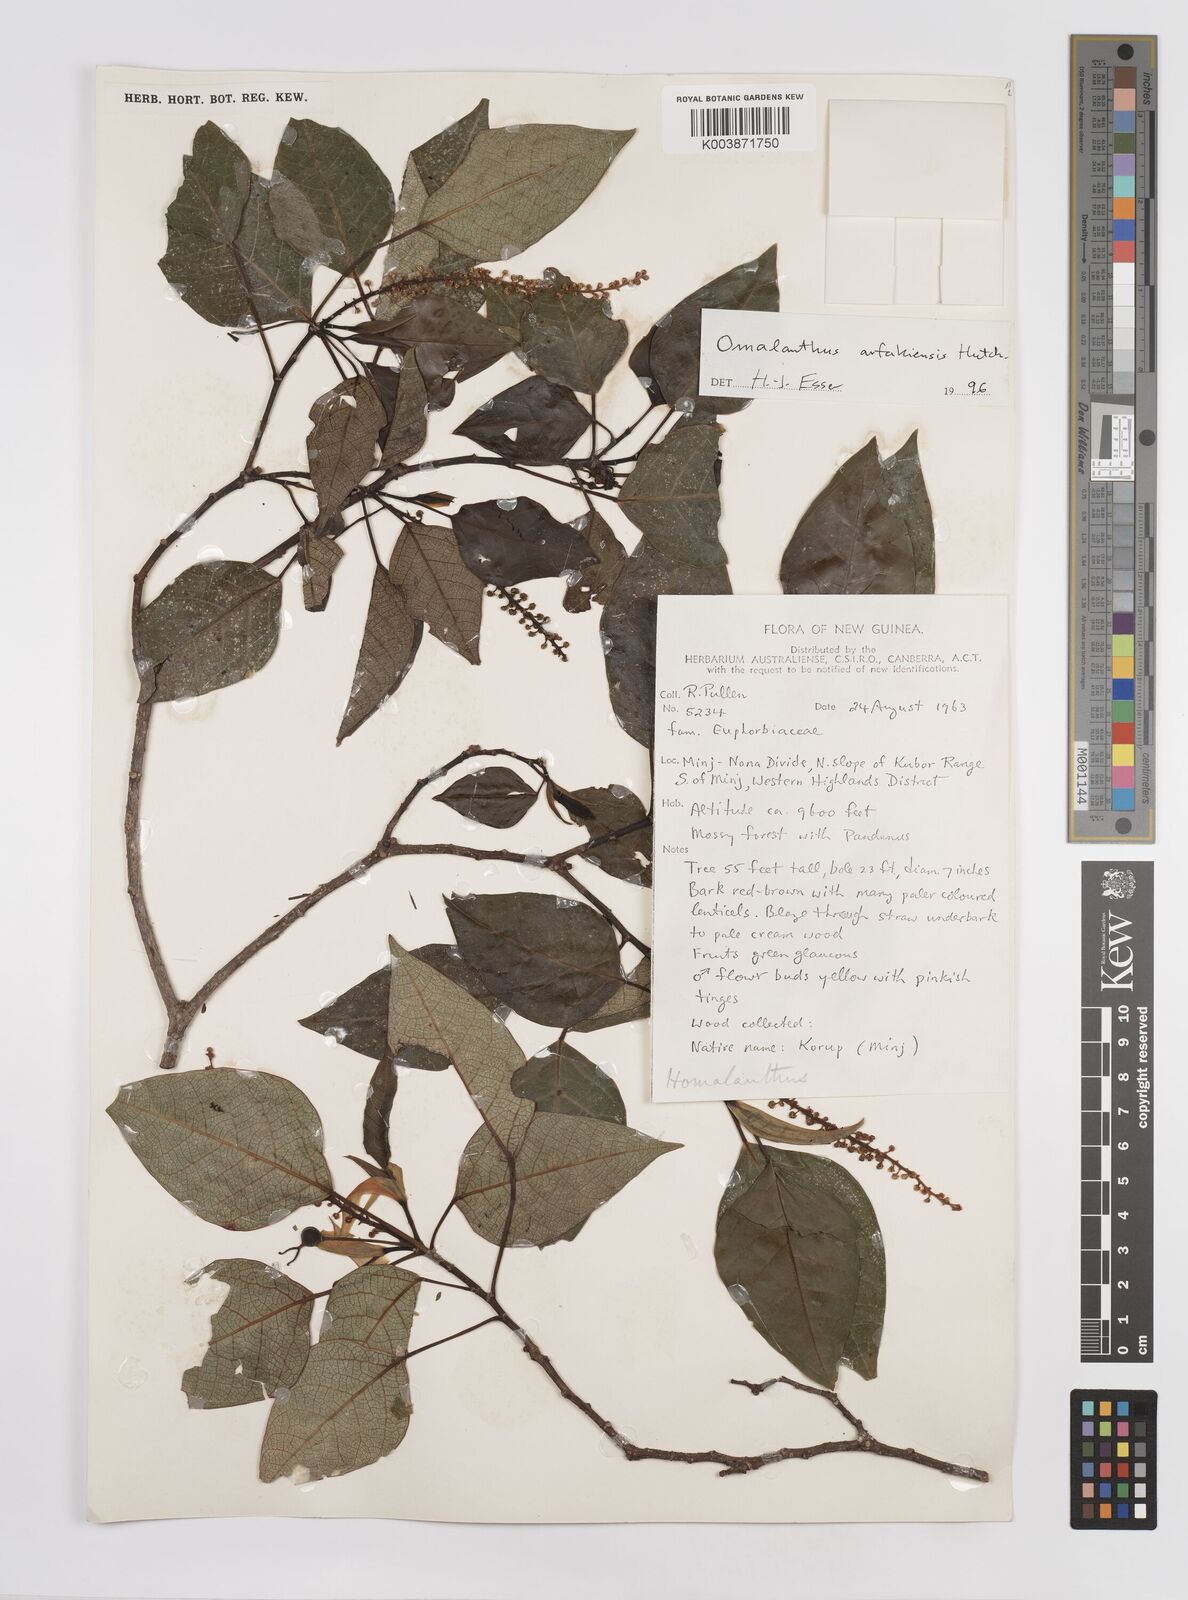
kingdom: Plantae
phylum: Tracheophyta
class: Magnoliopsida
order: Malpighiales
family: Euphorbiaceae
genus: Homalanthus
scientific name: Homalanthus arfakiensis
